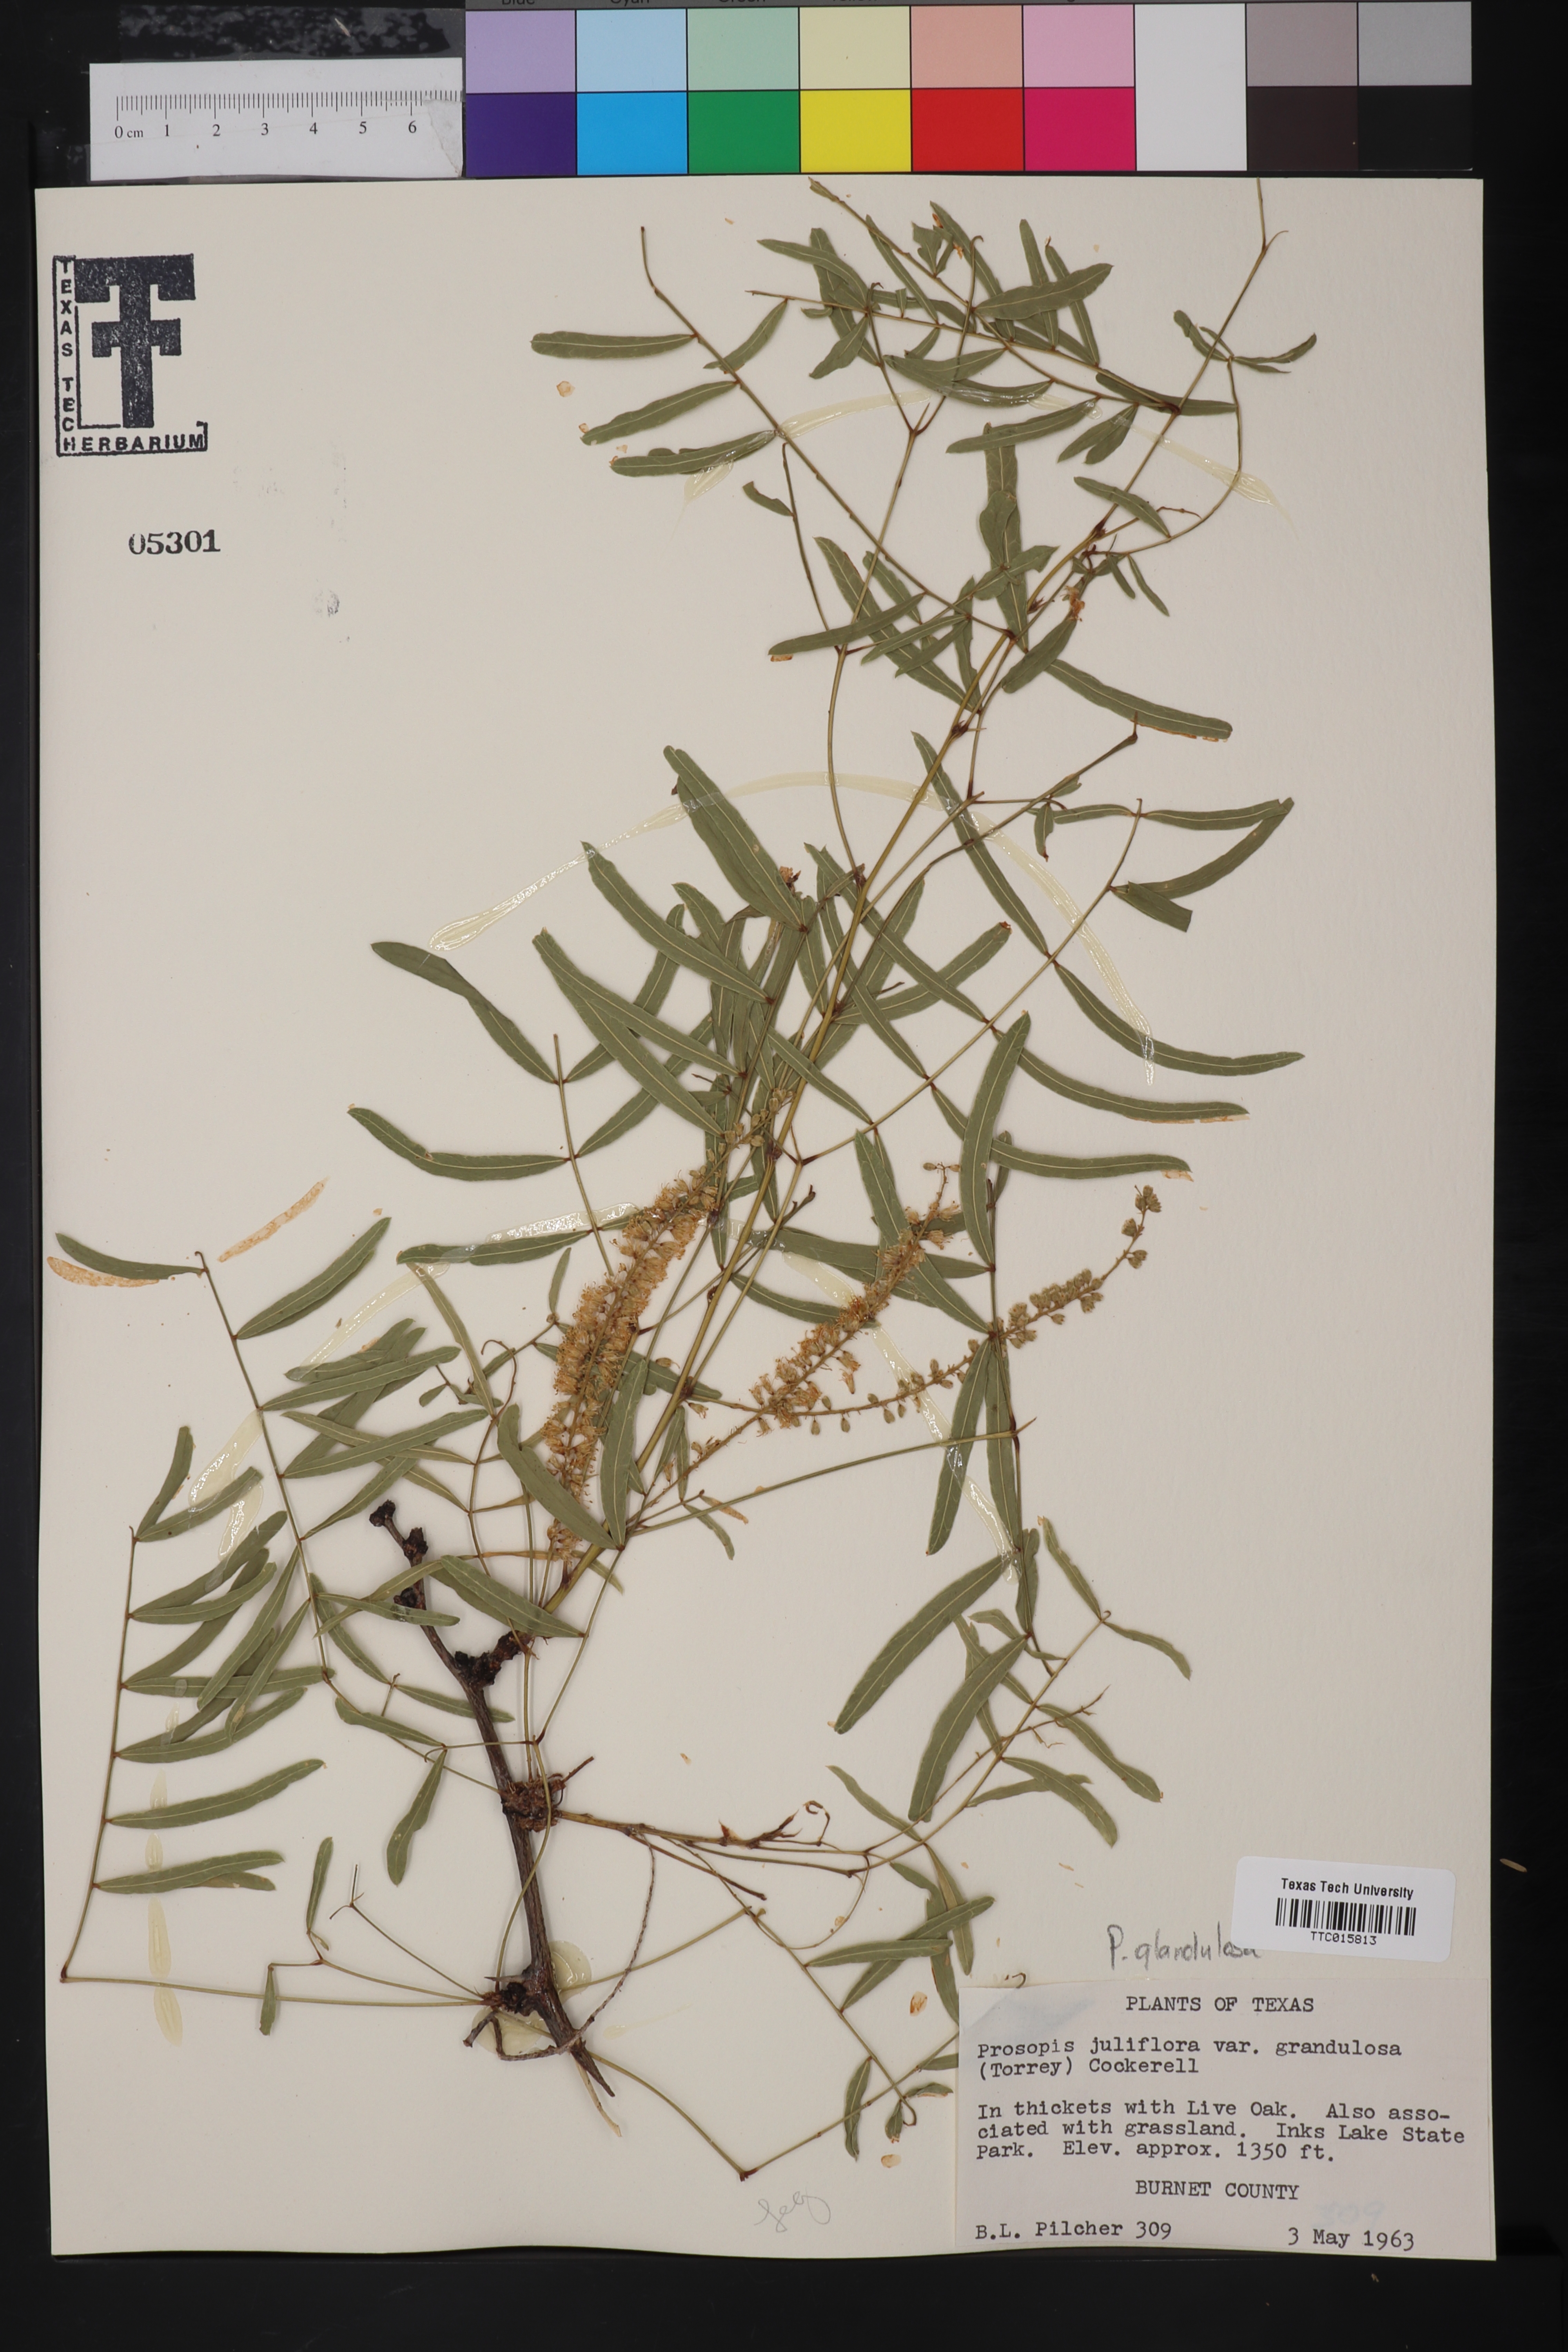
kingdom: Plantae
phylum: Tracheophyta
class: Magnoliopsida
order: Fabales
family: Fabaceae
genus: Prosopis
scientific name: Prosopis juliflora
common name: Mesquite
